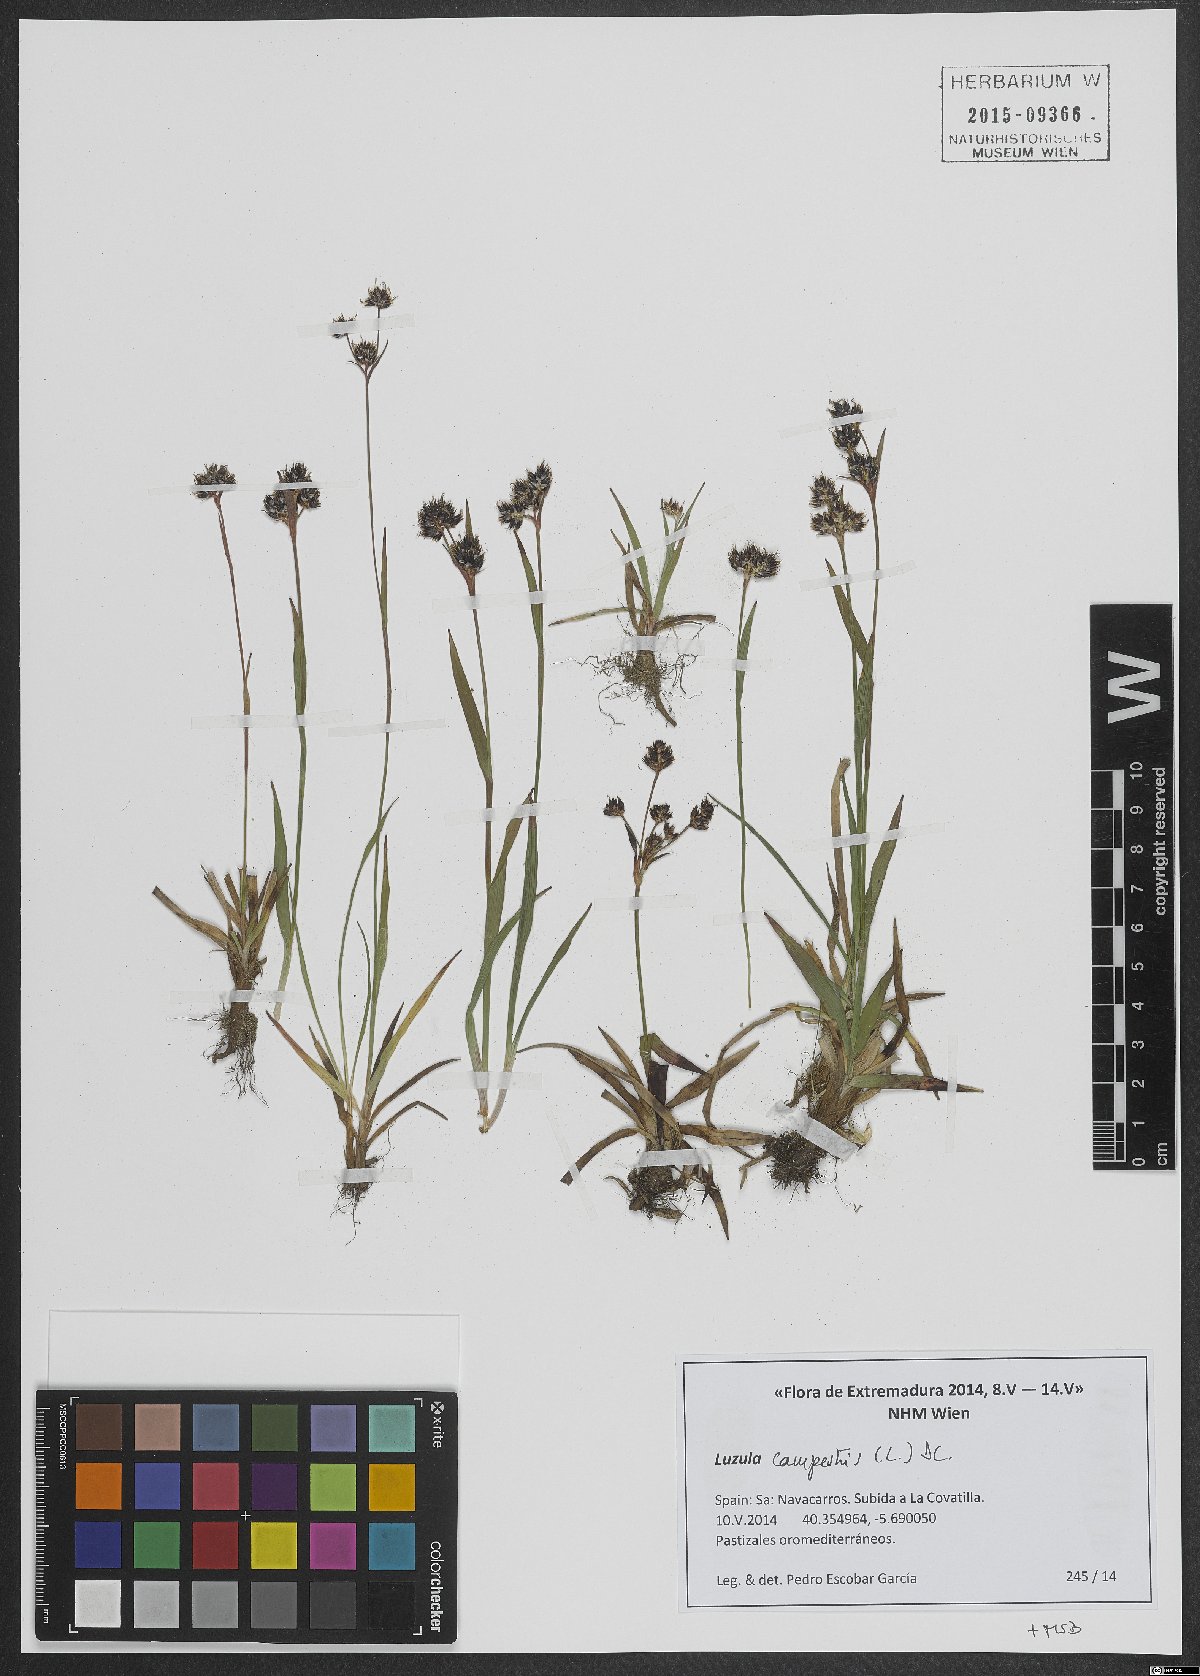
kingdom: Plantae
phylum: Tracheophyta
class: Liliopsida
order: Poales
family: Juncaceae
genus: Luzula
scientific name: Luzula campestris
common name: Field wood-rush
